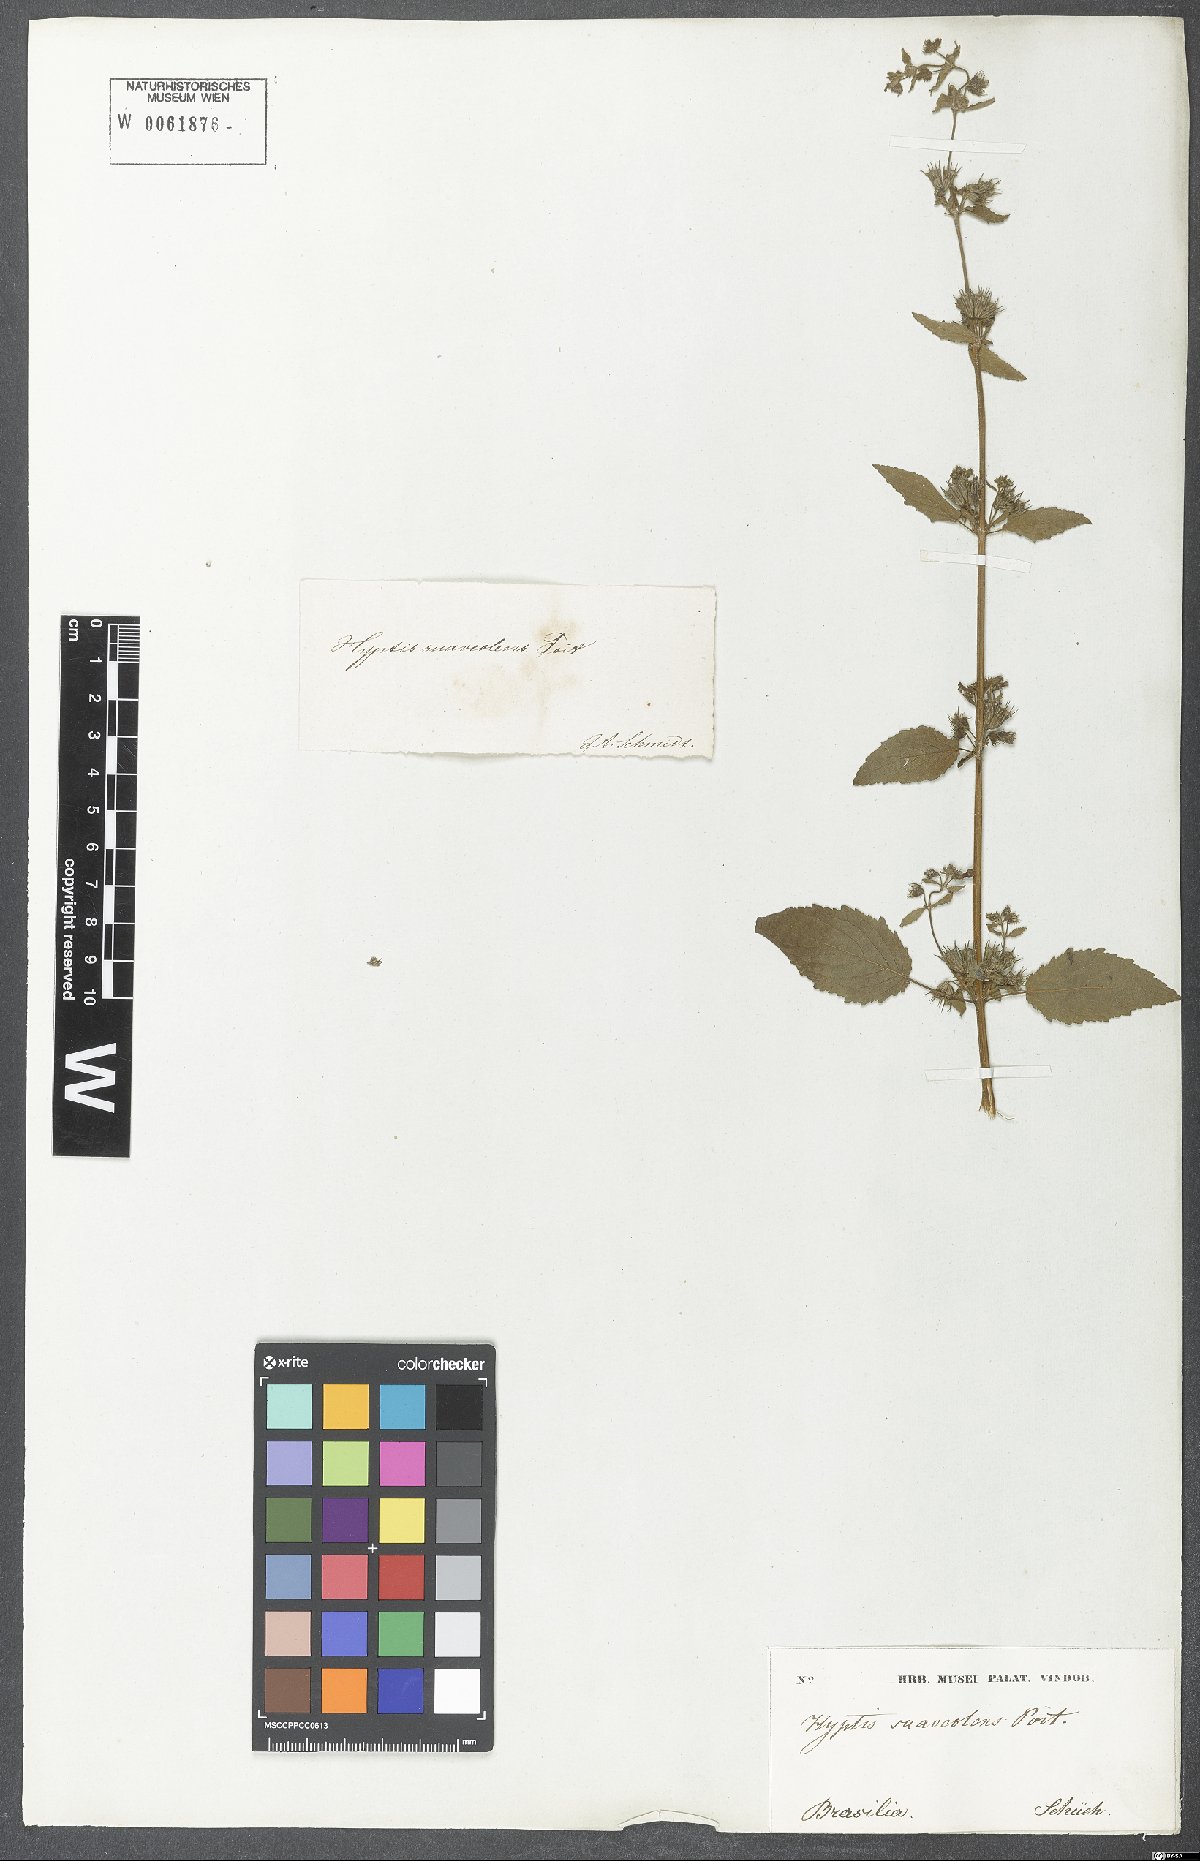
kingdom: Plantae
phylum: Tracheophyta
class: Magnoliopsida
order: Lamiales
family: Lamiaceae
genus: Mesosphaerum
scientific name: Mesosphaerum suaveolens
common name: Pignut
